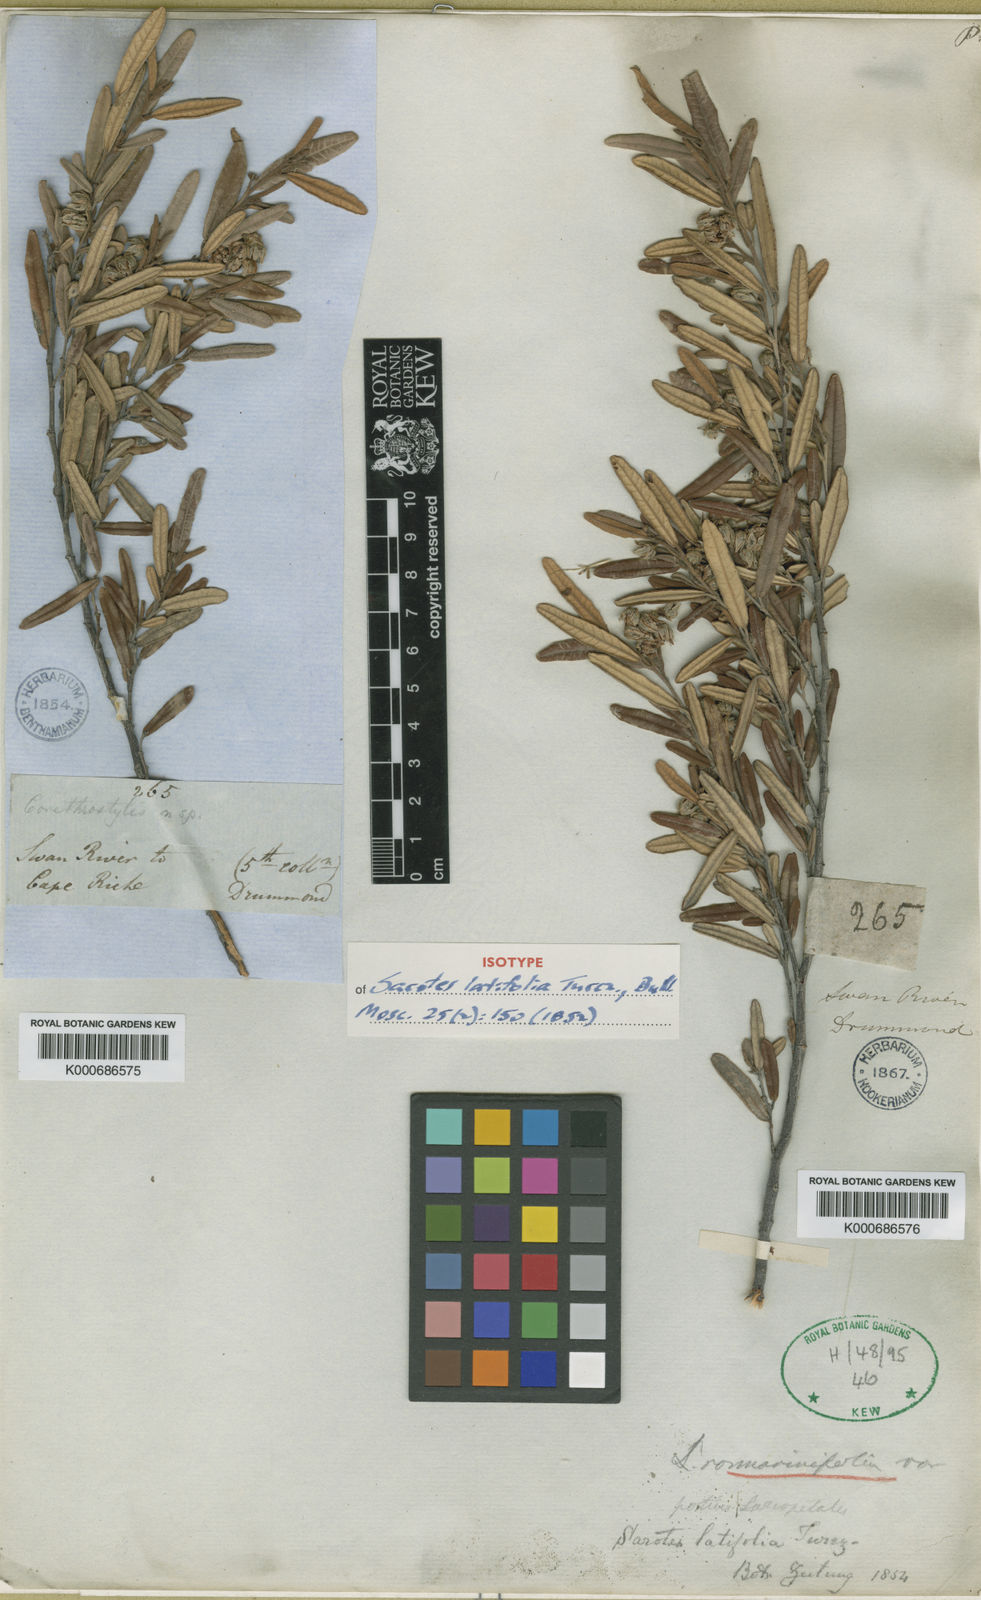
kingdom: Plantae
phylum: Tracheophyta
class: Magnoliopsida
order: Malvales
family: Malvaceae
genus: Lasiopetalum
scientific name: Lasiopetalum rosmarinifolium
